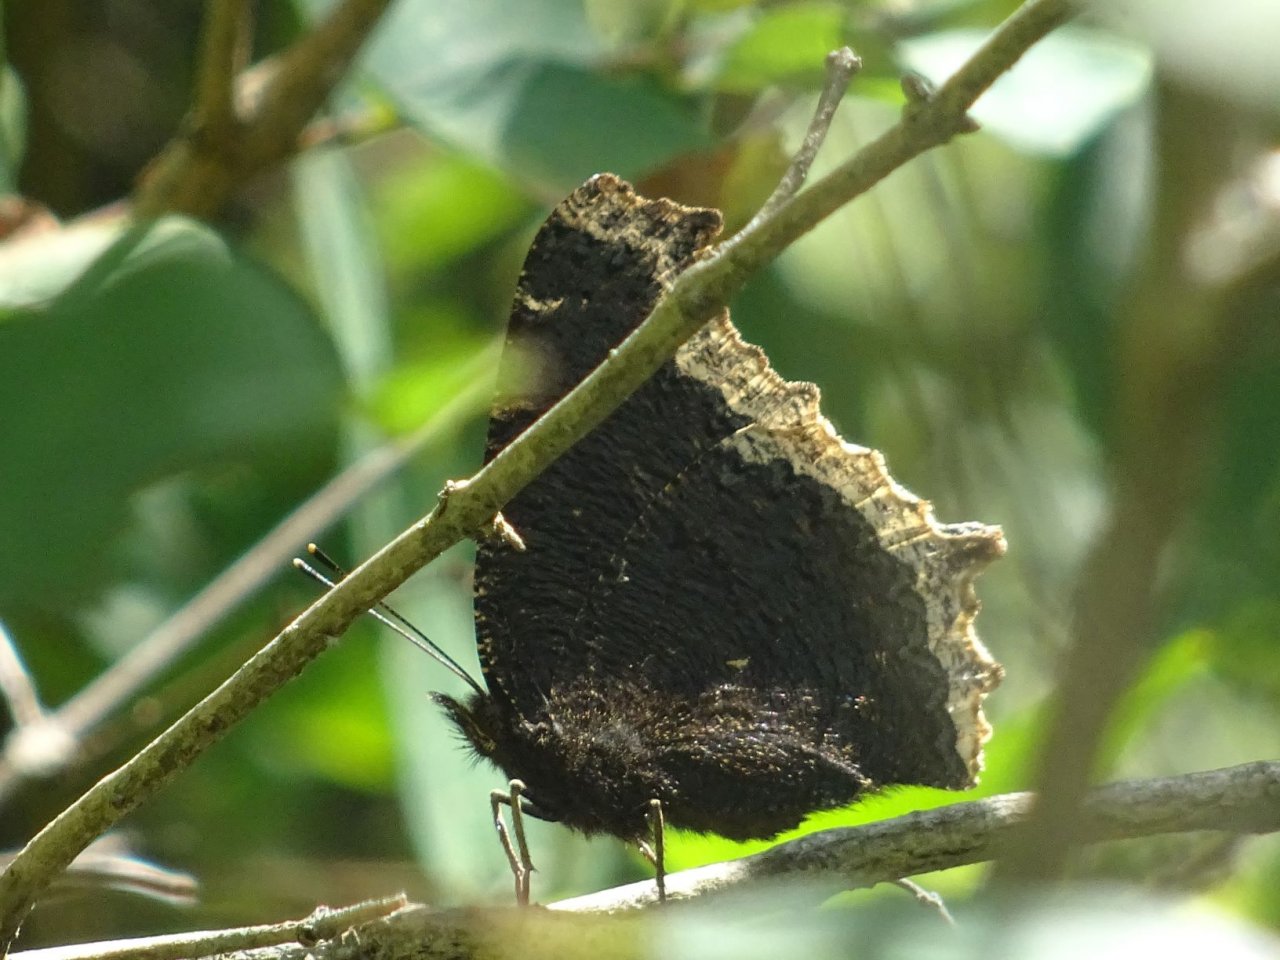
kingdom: Animalia
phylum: Arthropoda
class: Insecta
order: Lepidoptera
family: Nymphalidae
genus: Nymphalis
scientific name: Nymphalis antiopa
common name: Mourning Cloak
